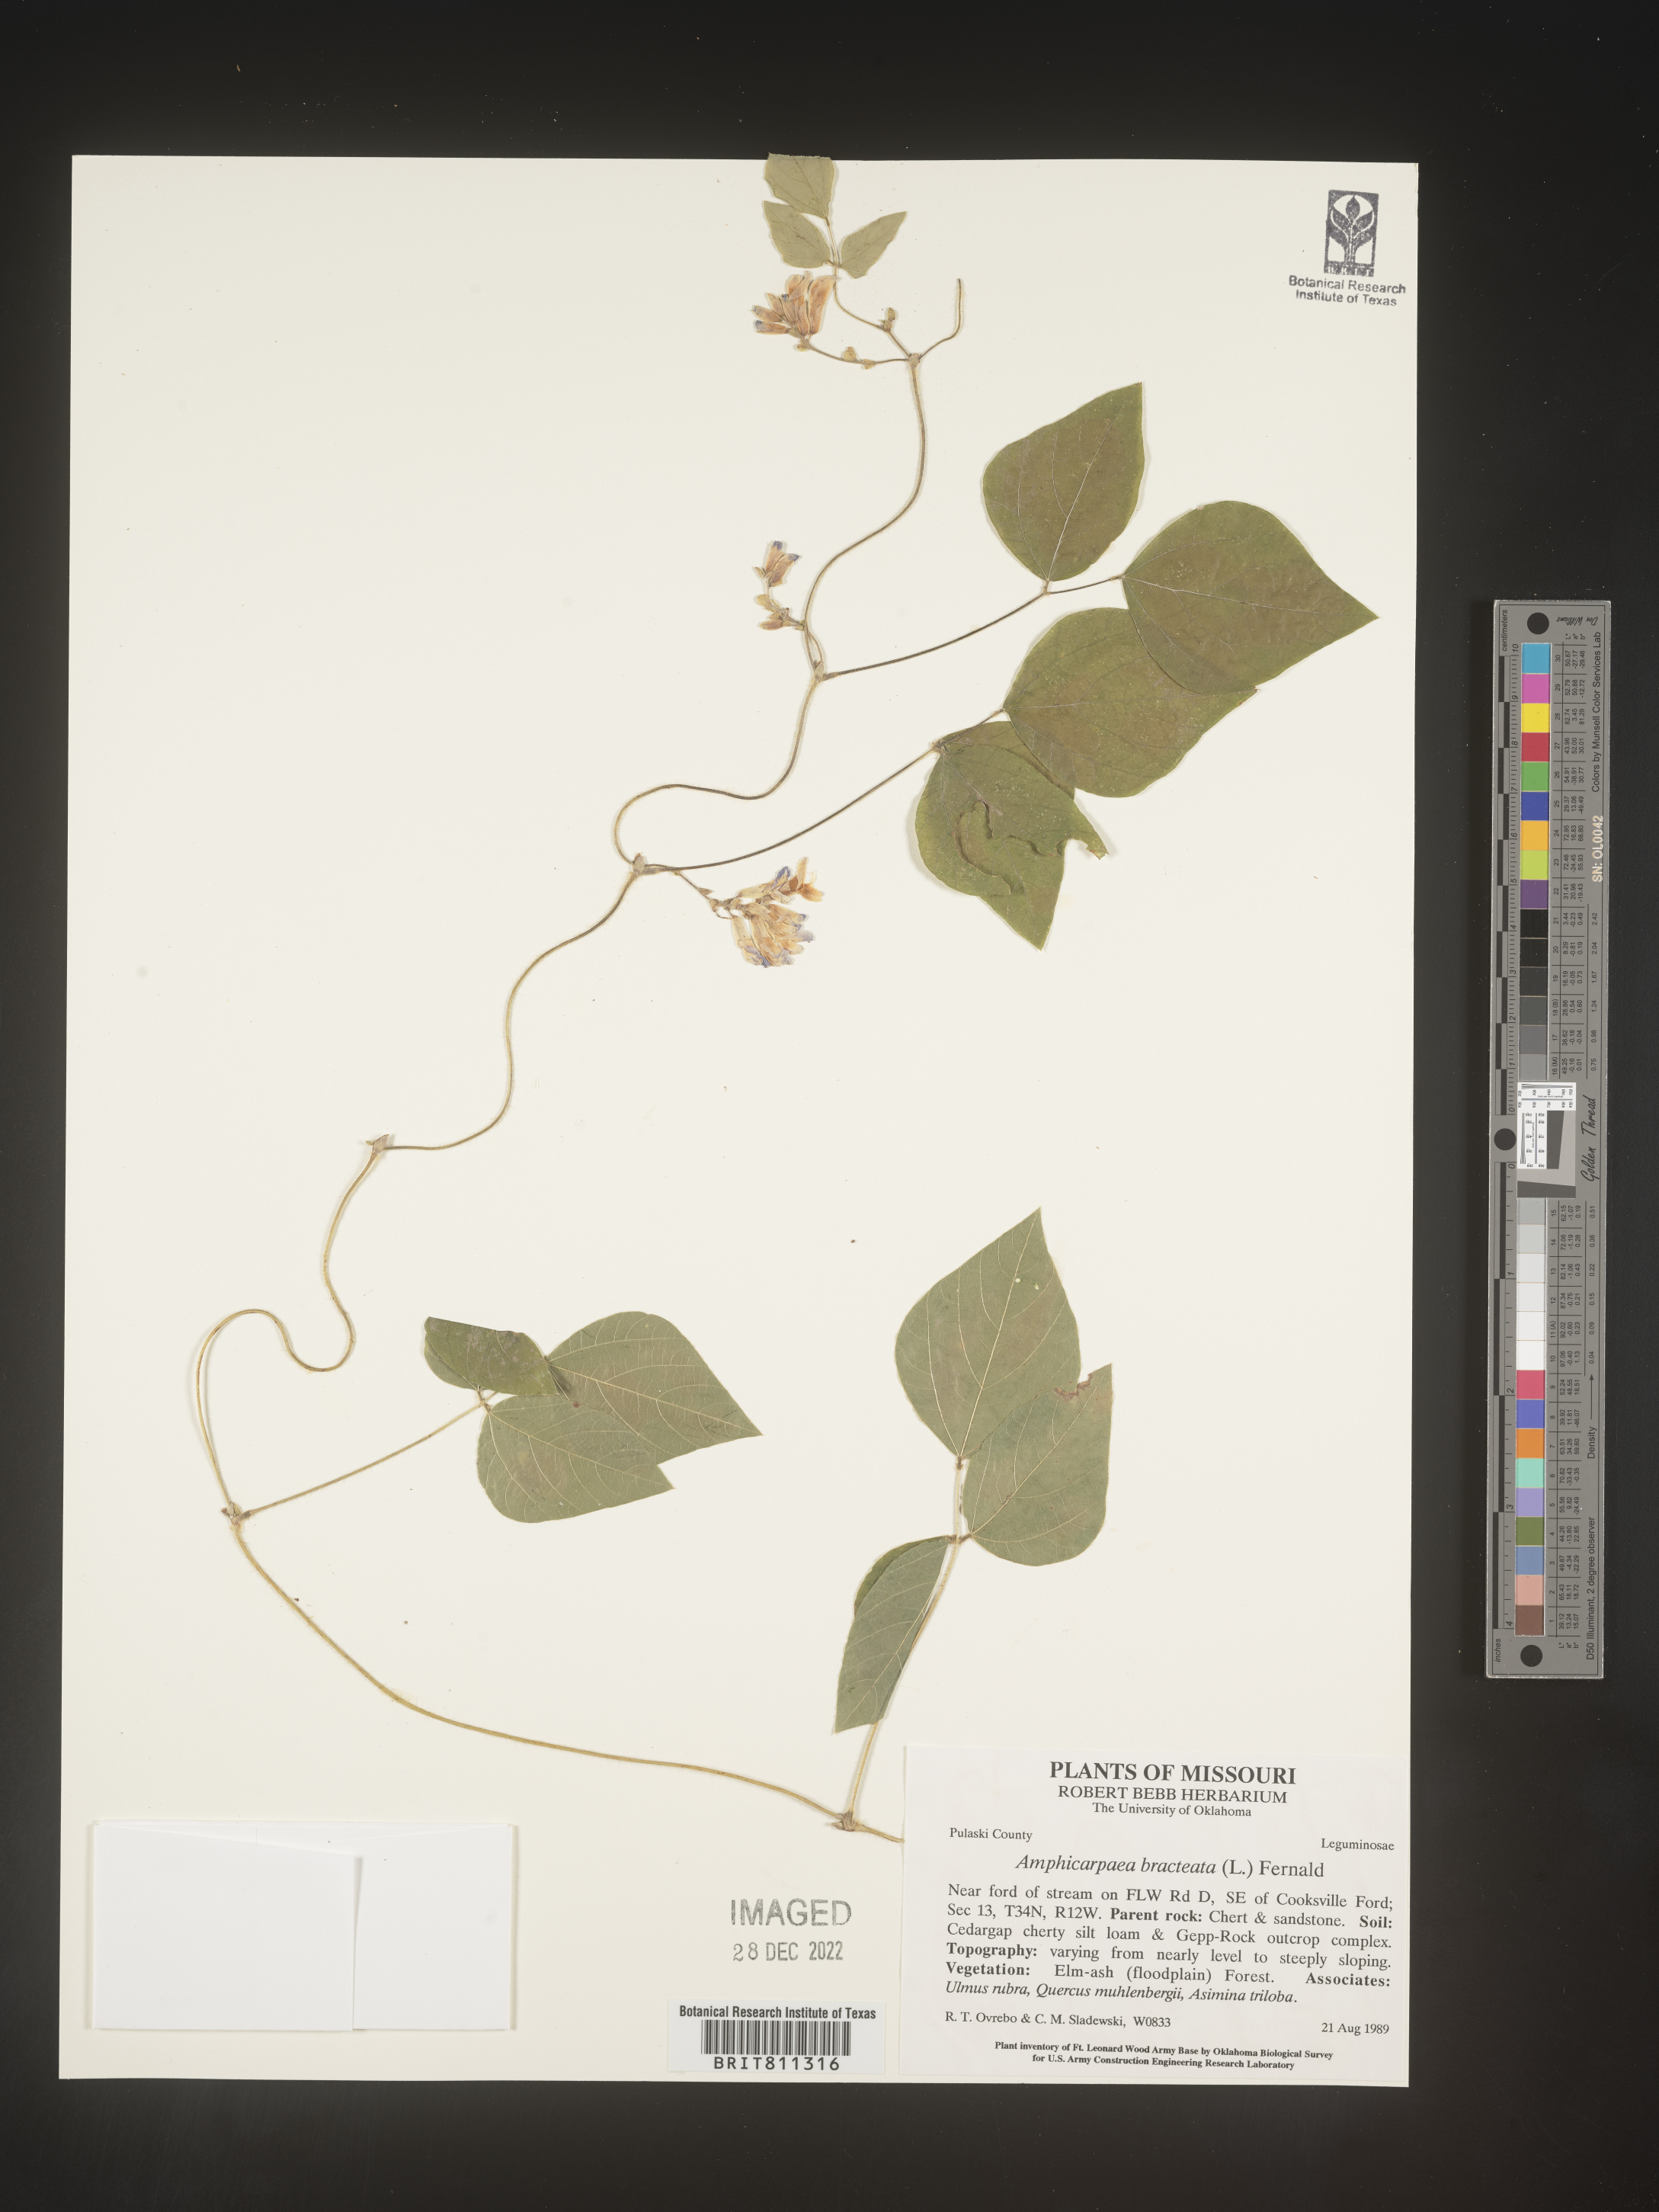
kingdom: Plantae
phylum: Tracheophyta
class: Magnoliopsida
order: Fabales
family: Fabaceae
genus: Amphicarpaea
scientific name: Amphicarpaea bracteata
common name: American hog peanut
